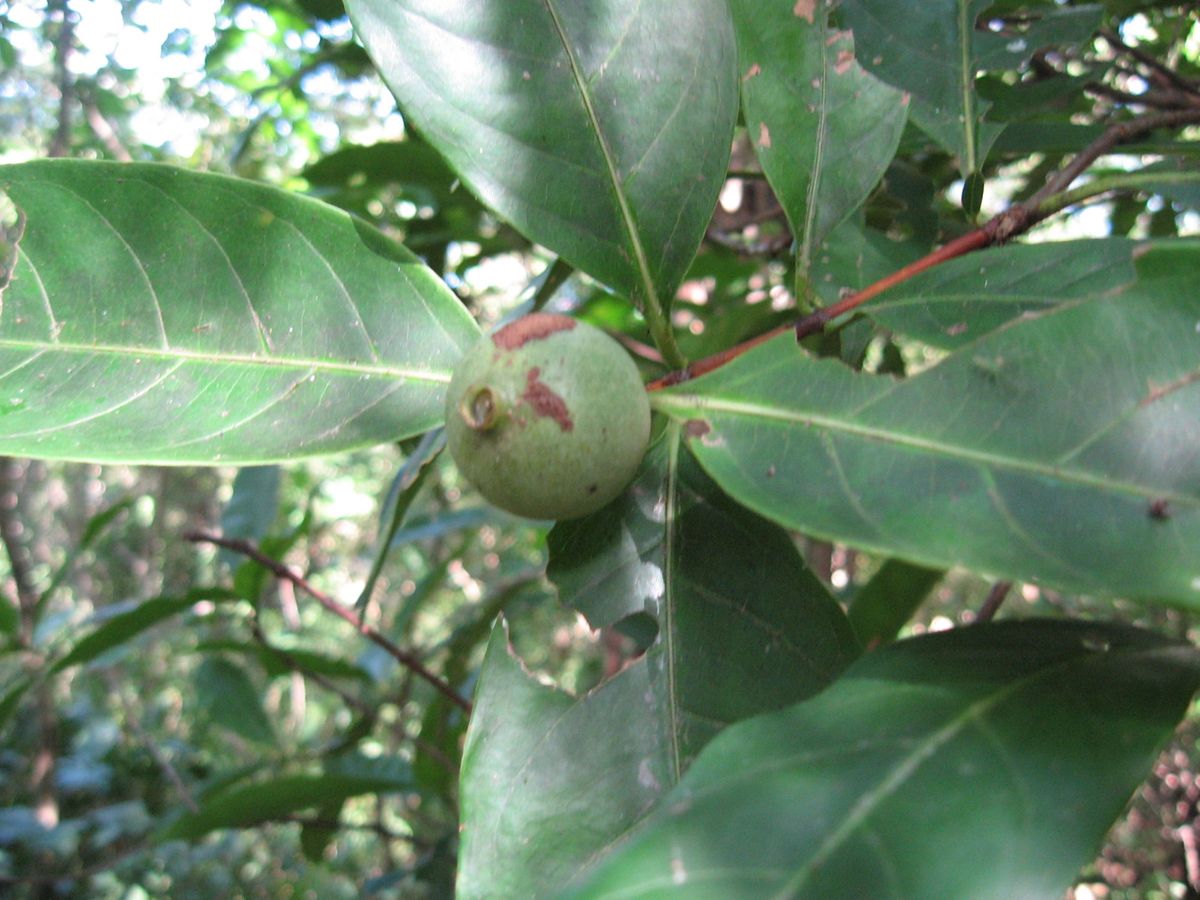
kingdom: Plantae
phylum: Tracheophyta
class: Magnoliopsida
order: Gentianales
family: Rubiaceae
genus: Alibertia
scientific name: Alibertia edulis
